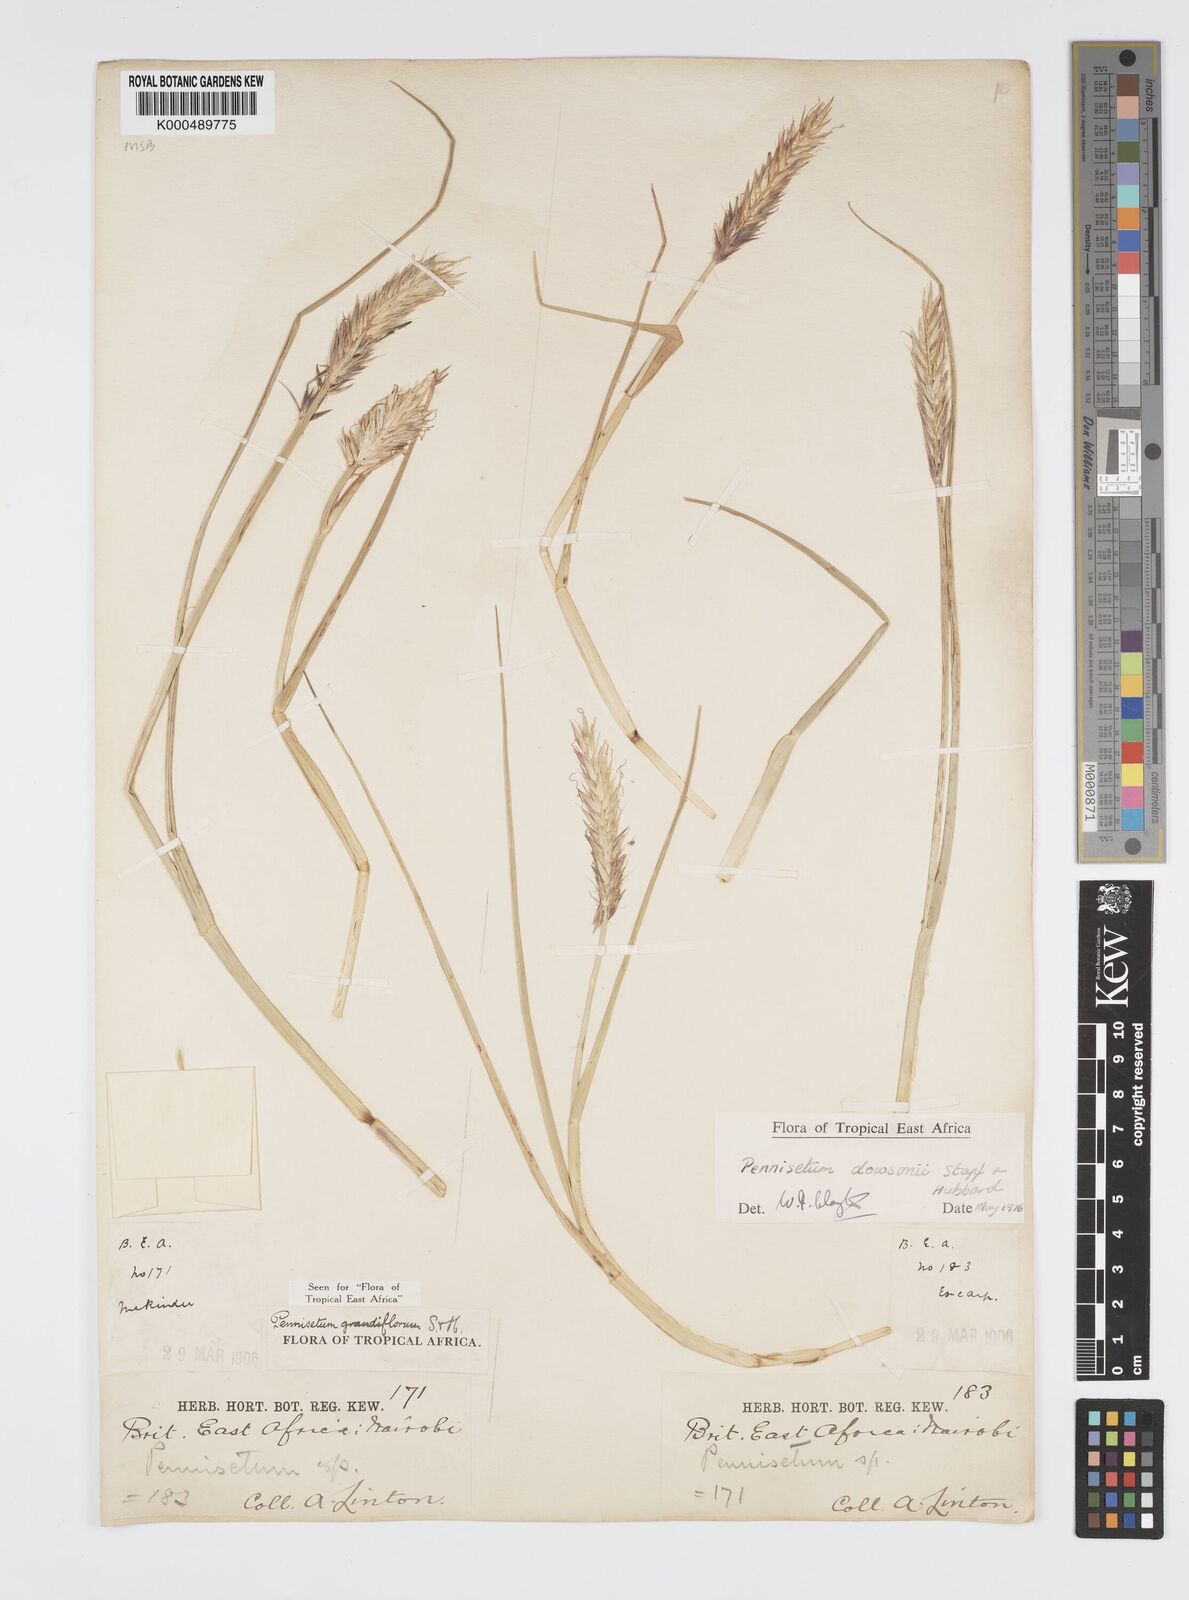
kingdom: Plantae
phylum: Tracheophyta
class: Liliopsida
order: Poales
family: Poaceae
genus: Cenchrus
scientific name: Cenchrus Pennisetum spec
